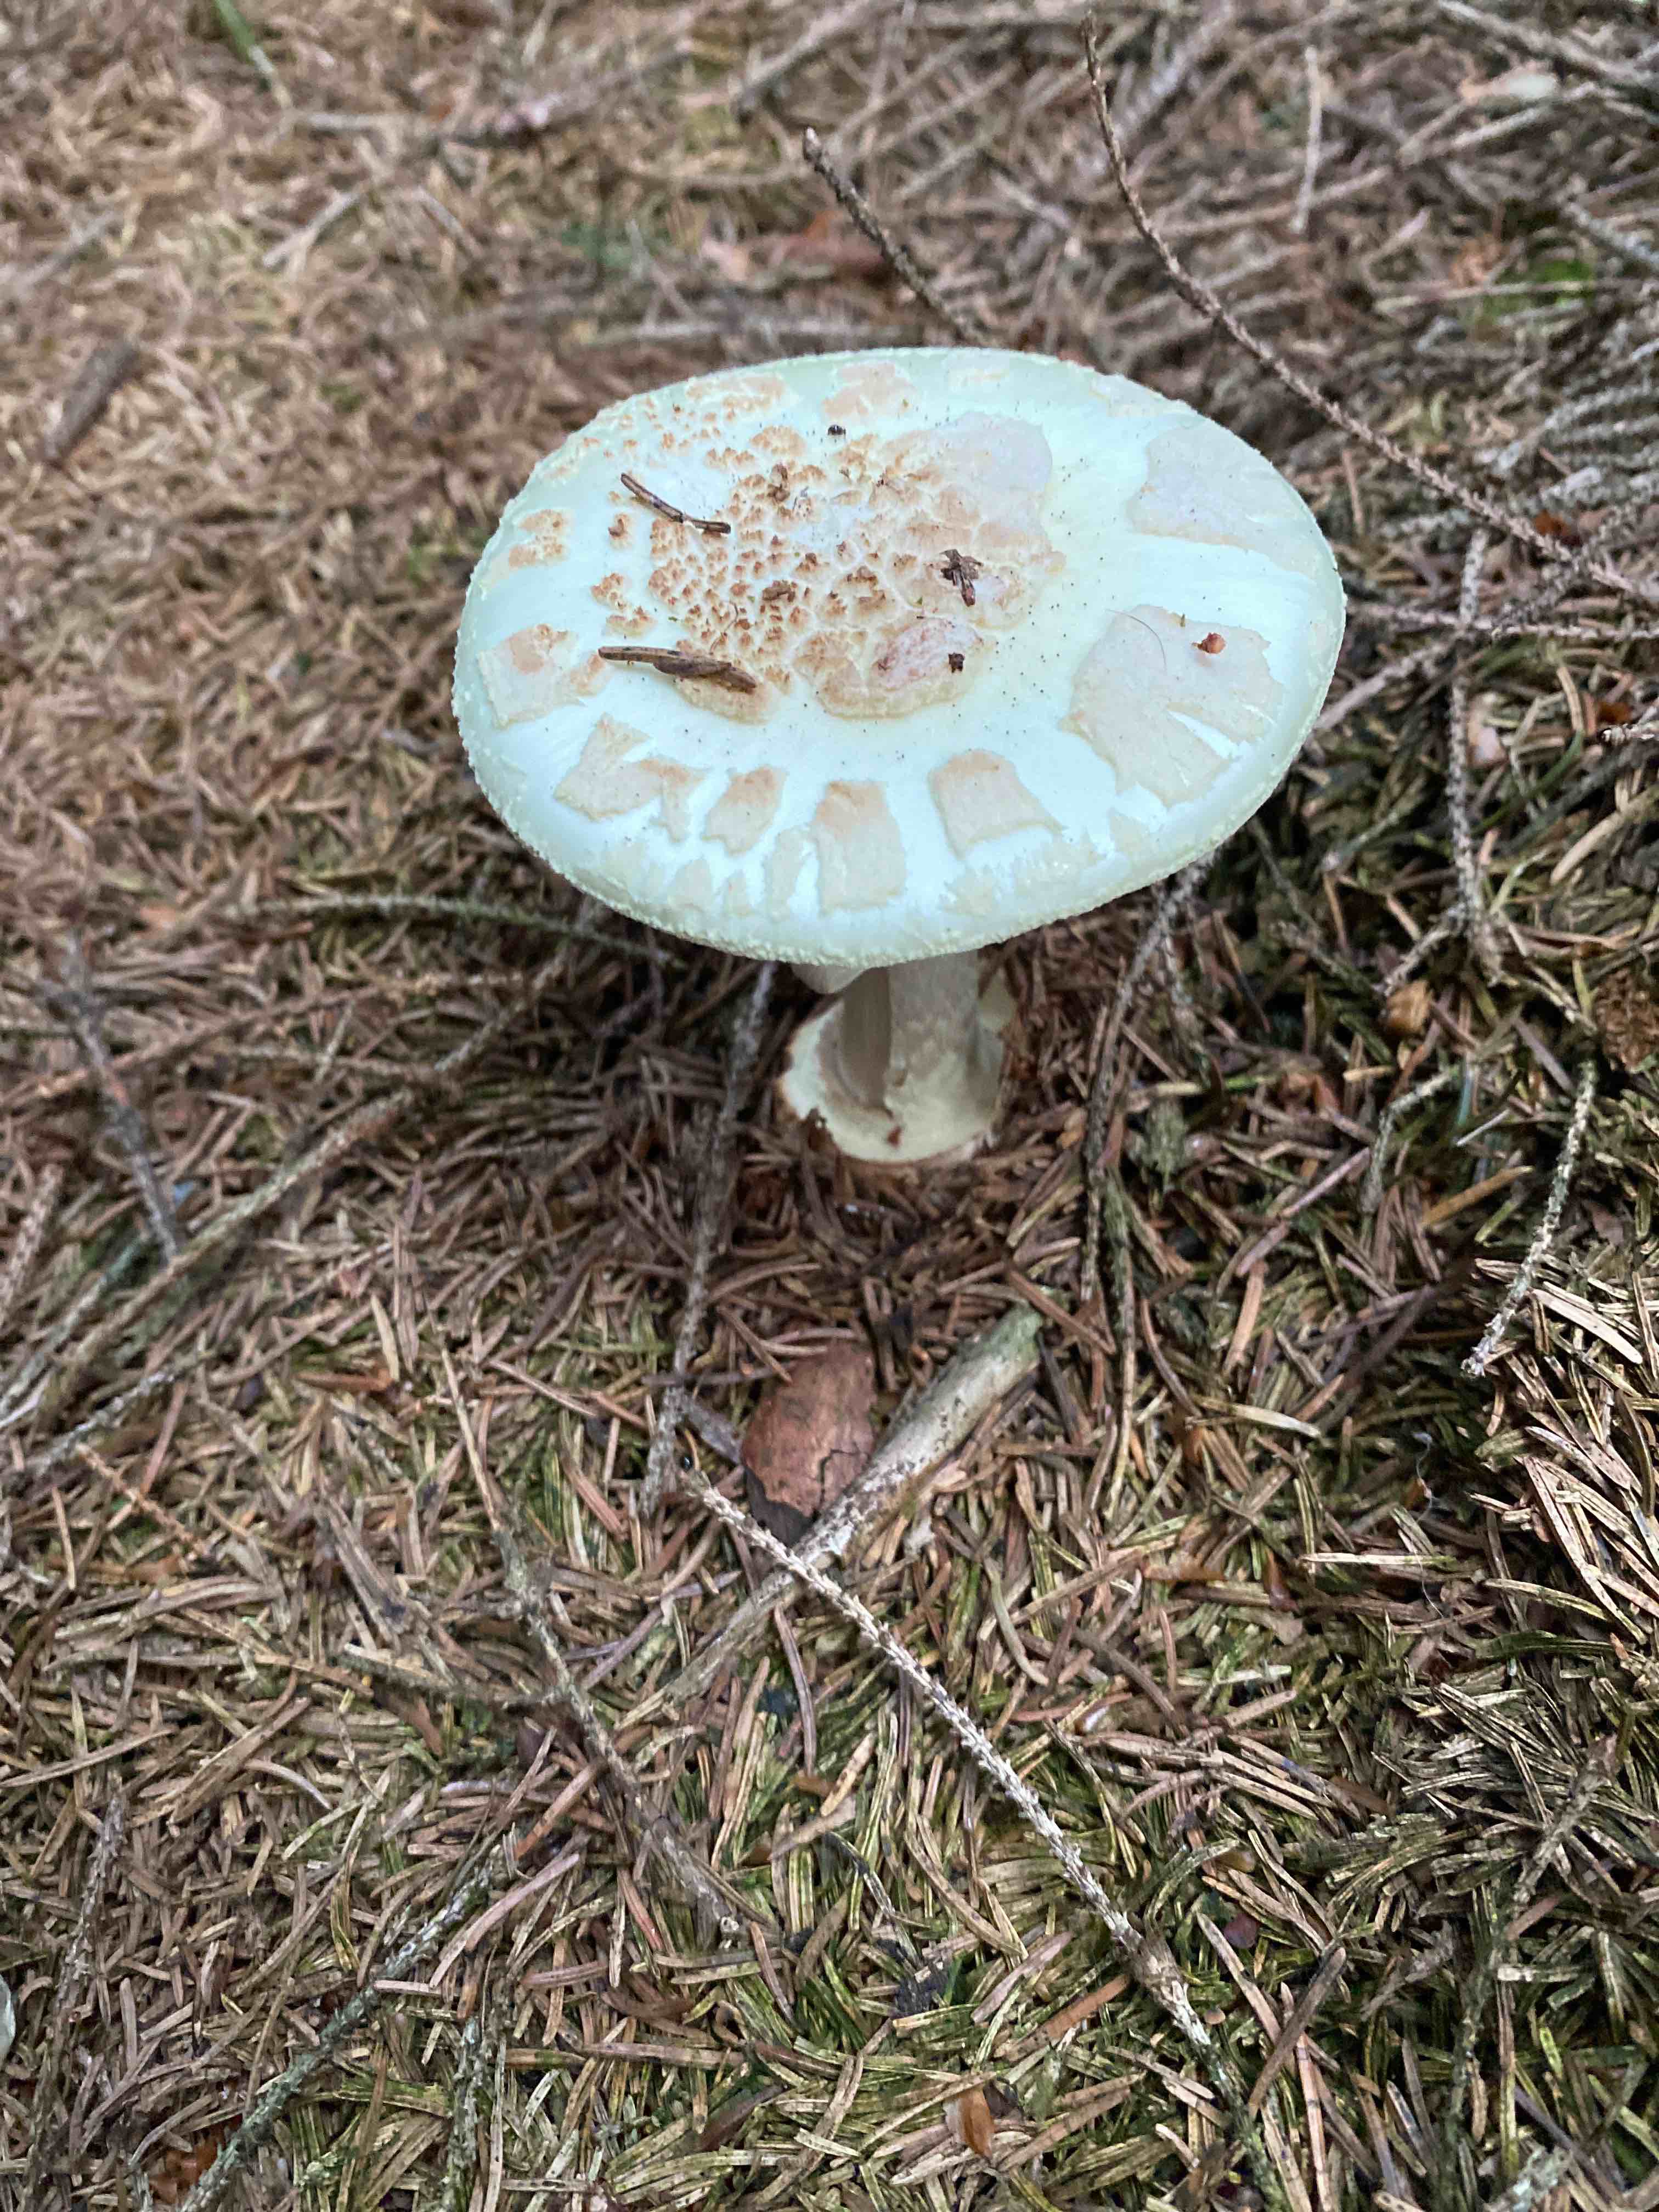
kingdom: Fungi
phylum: Basidiomycota
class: Agaricomycetes
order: Agaricales
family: Amanitaceae
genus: Amanita
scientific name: Amanita citrina
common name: kugleknoldet fluesvamp
